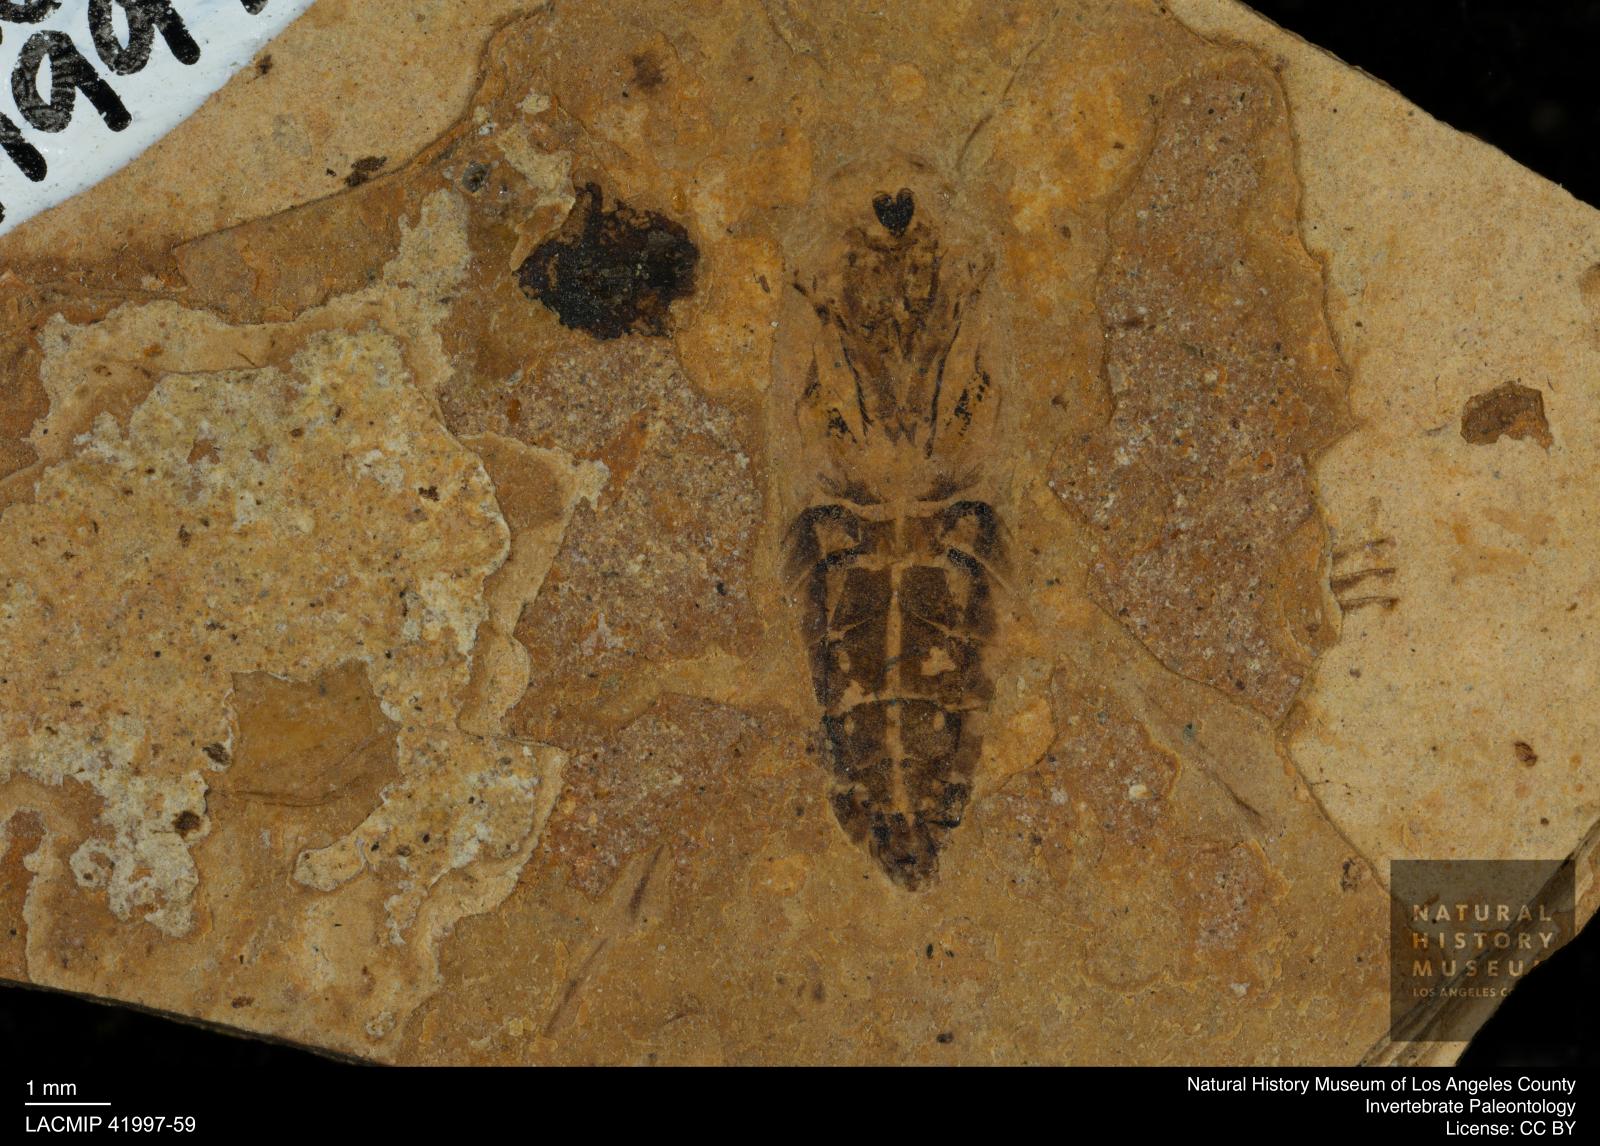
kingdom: Animalia
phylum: Arthropoda
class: Insecta
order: Hemiptera
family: Notonectidae
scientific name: Notonectidae
